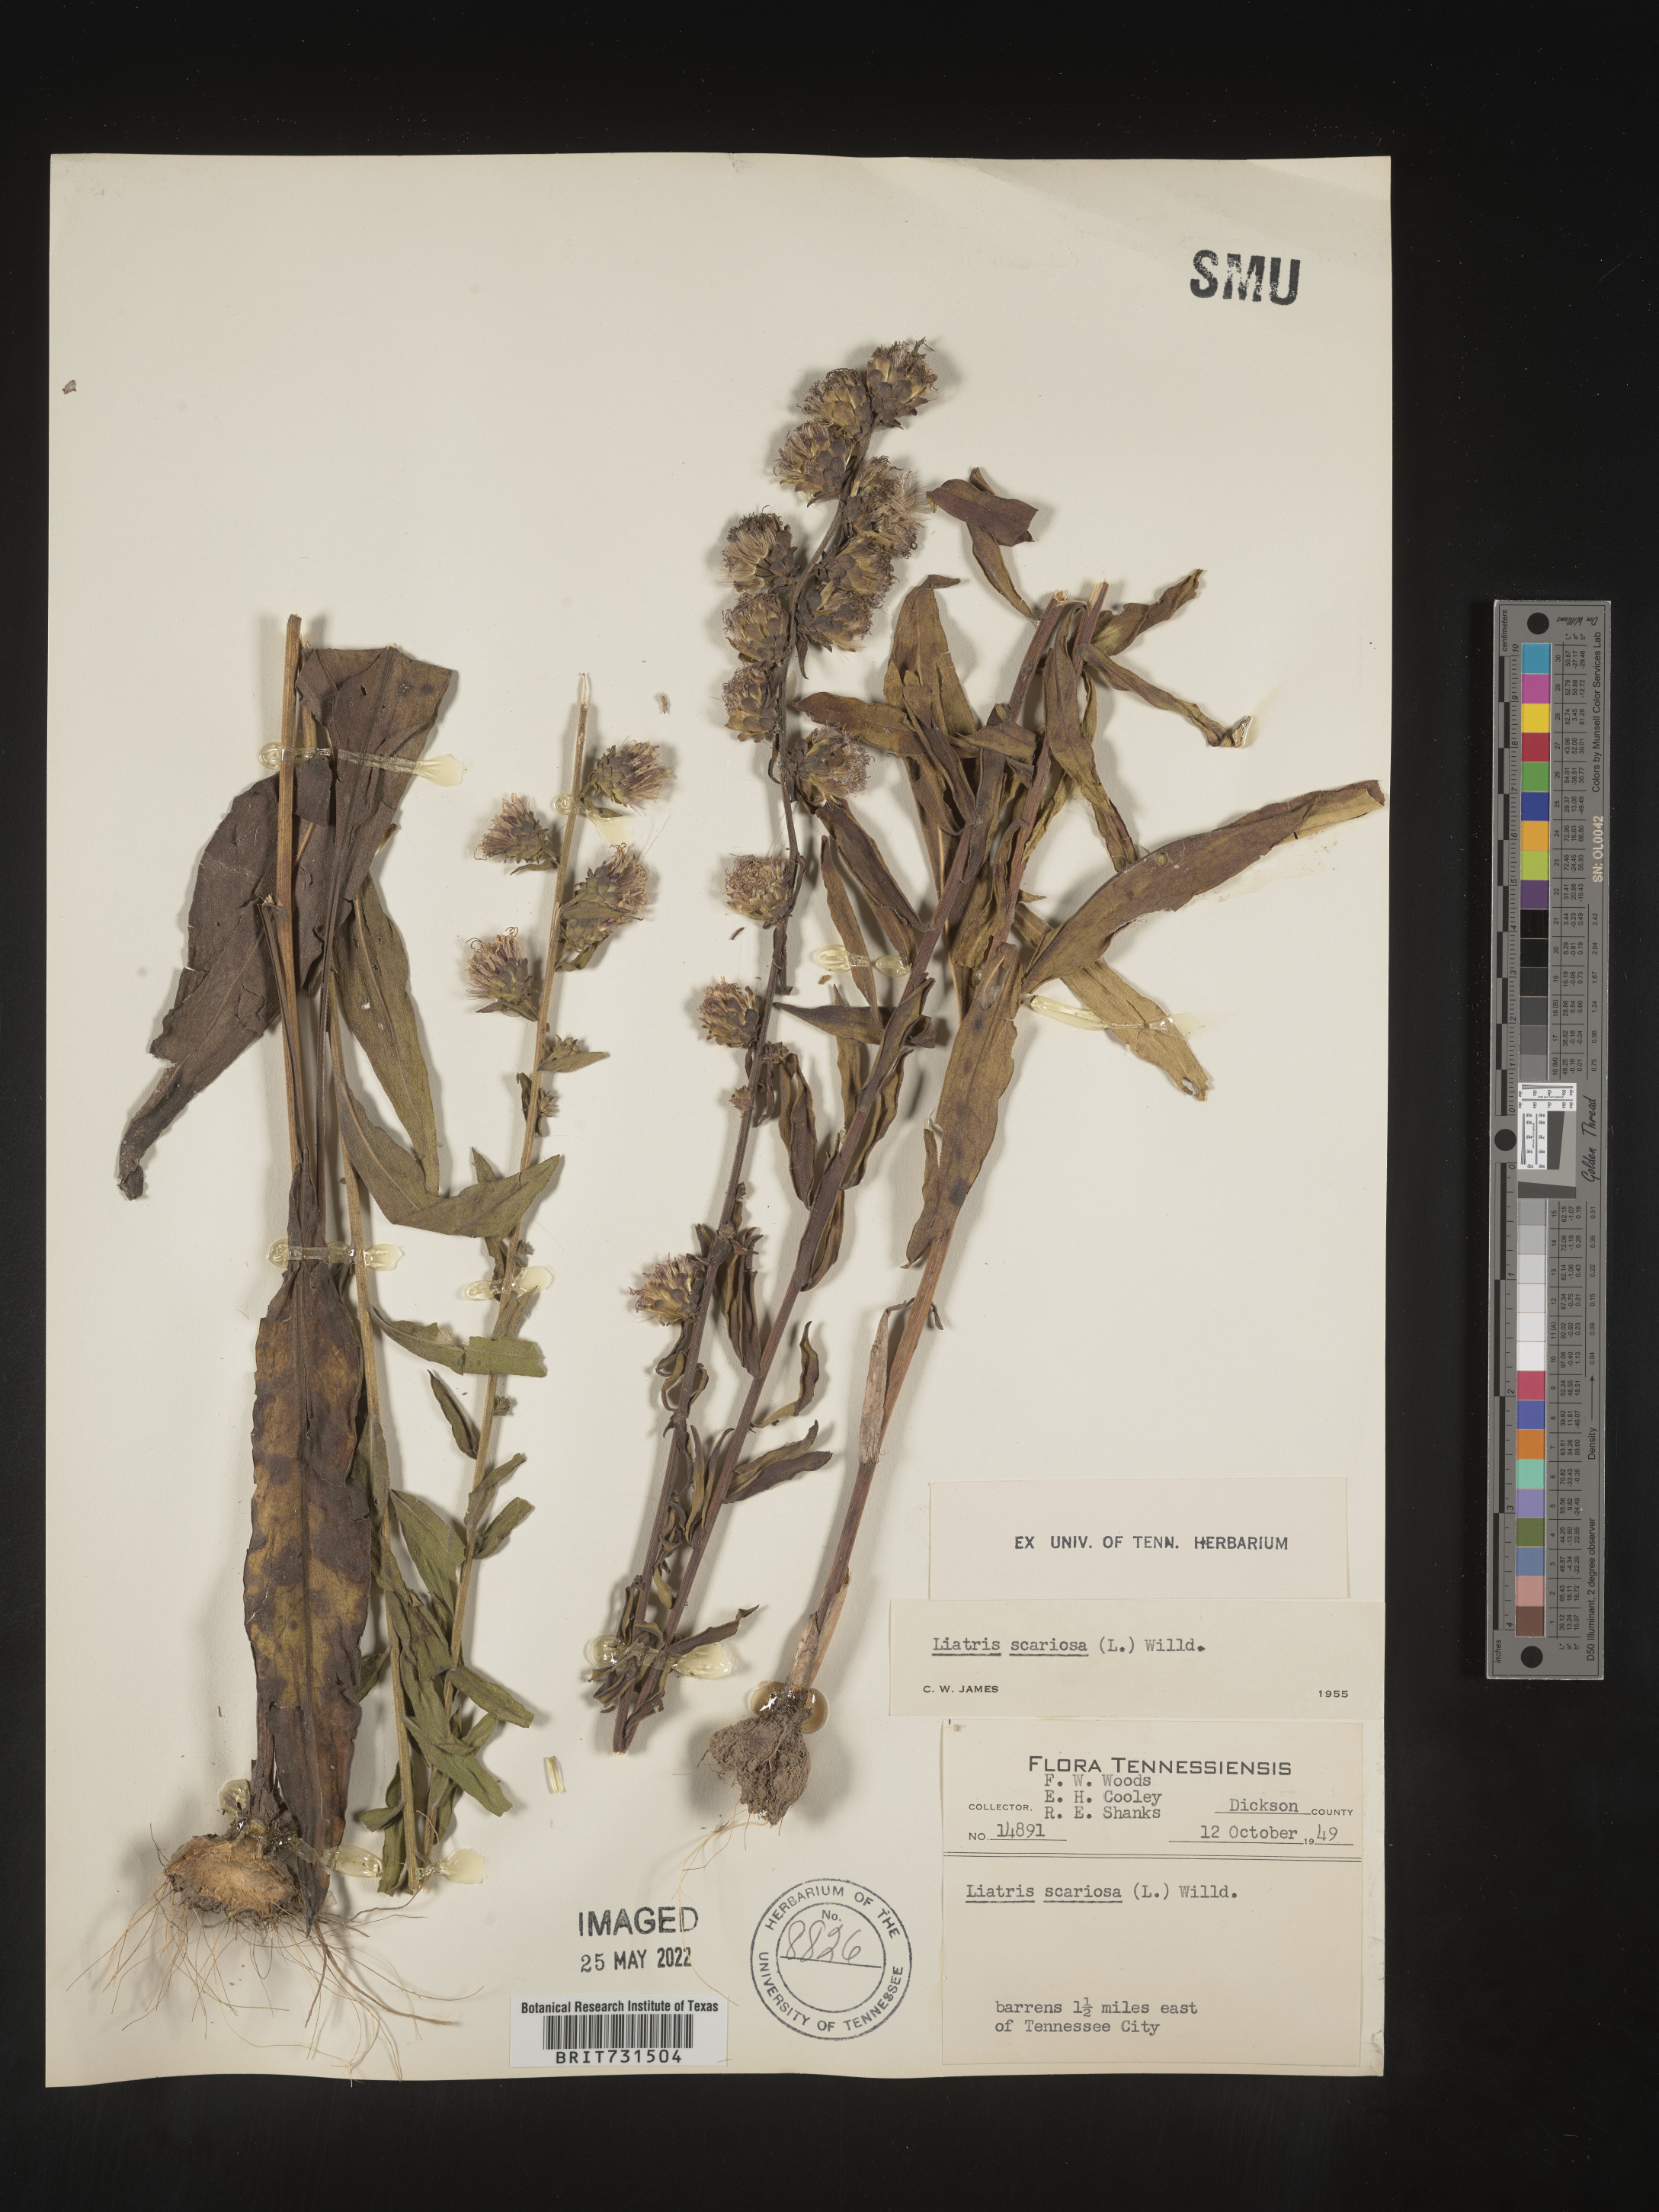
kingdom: Plantae
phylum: Tracheophyta
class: Magnoliopsida
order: Asterales
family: Asteraceae
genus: Liatris
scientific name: Liatris squarrulosa
